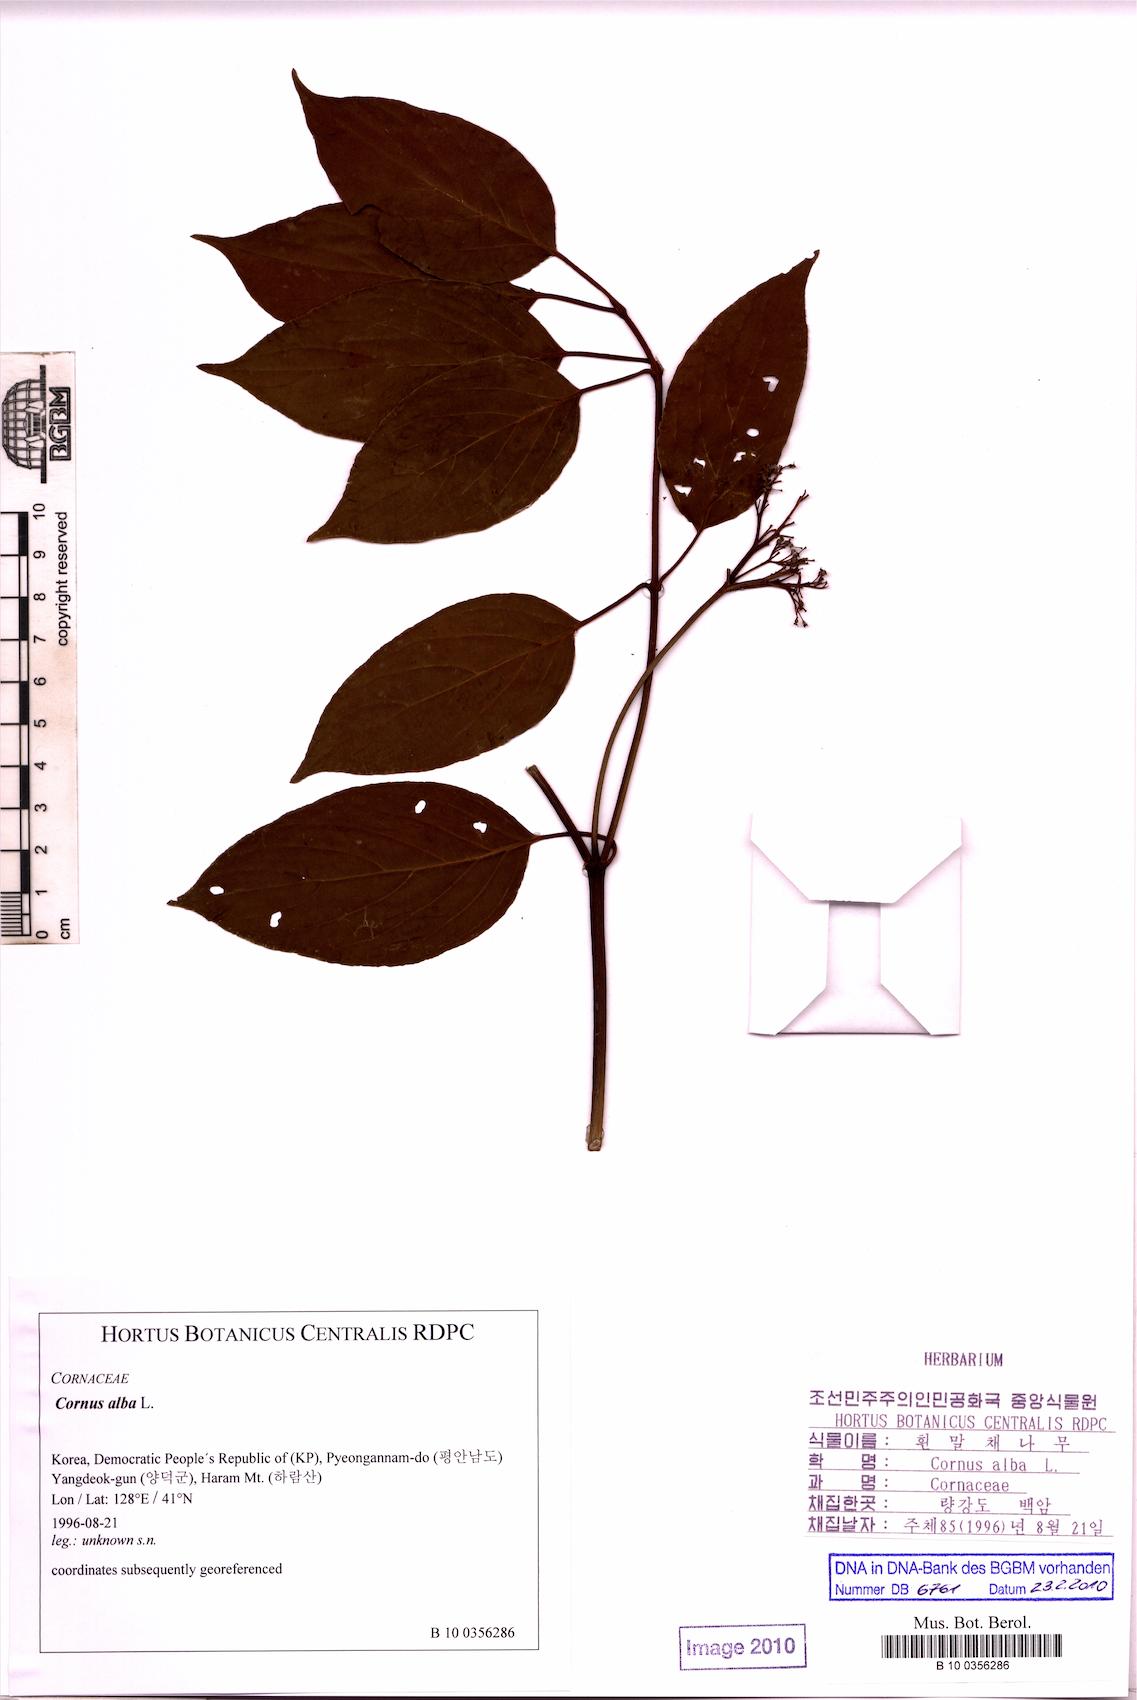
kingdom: Plantae
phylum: Tracheophyta
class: Magnoliopsida
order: Cornales
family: Cornaceae
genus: Cornus
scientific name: Cornus alba
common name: White dogwood
